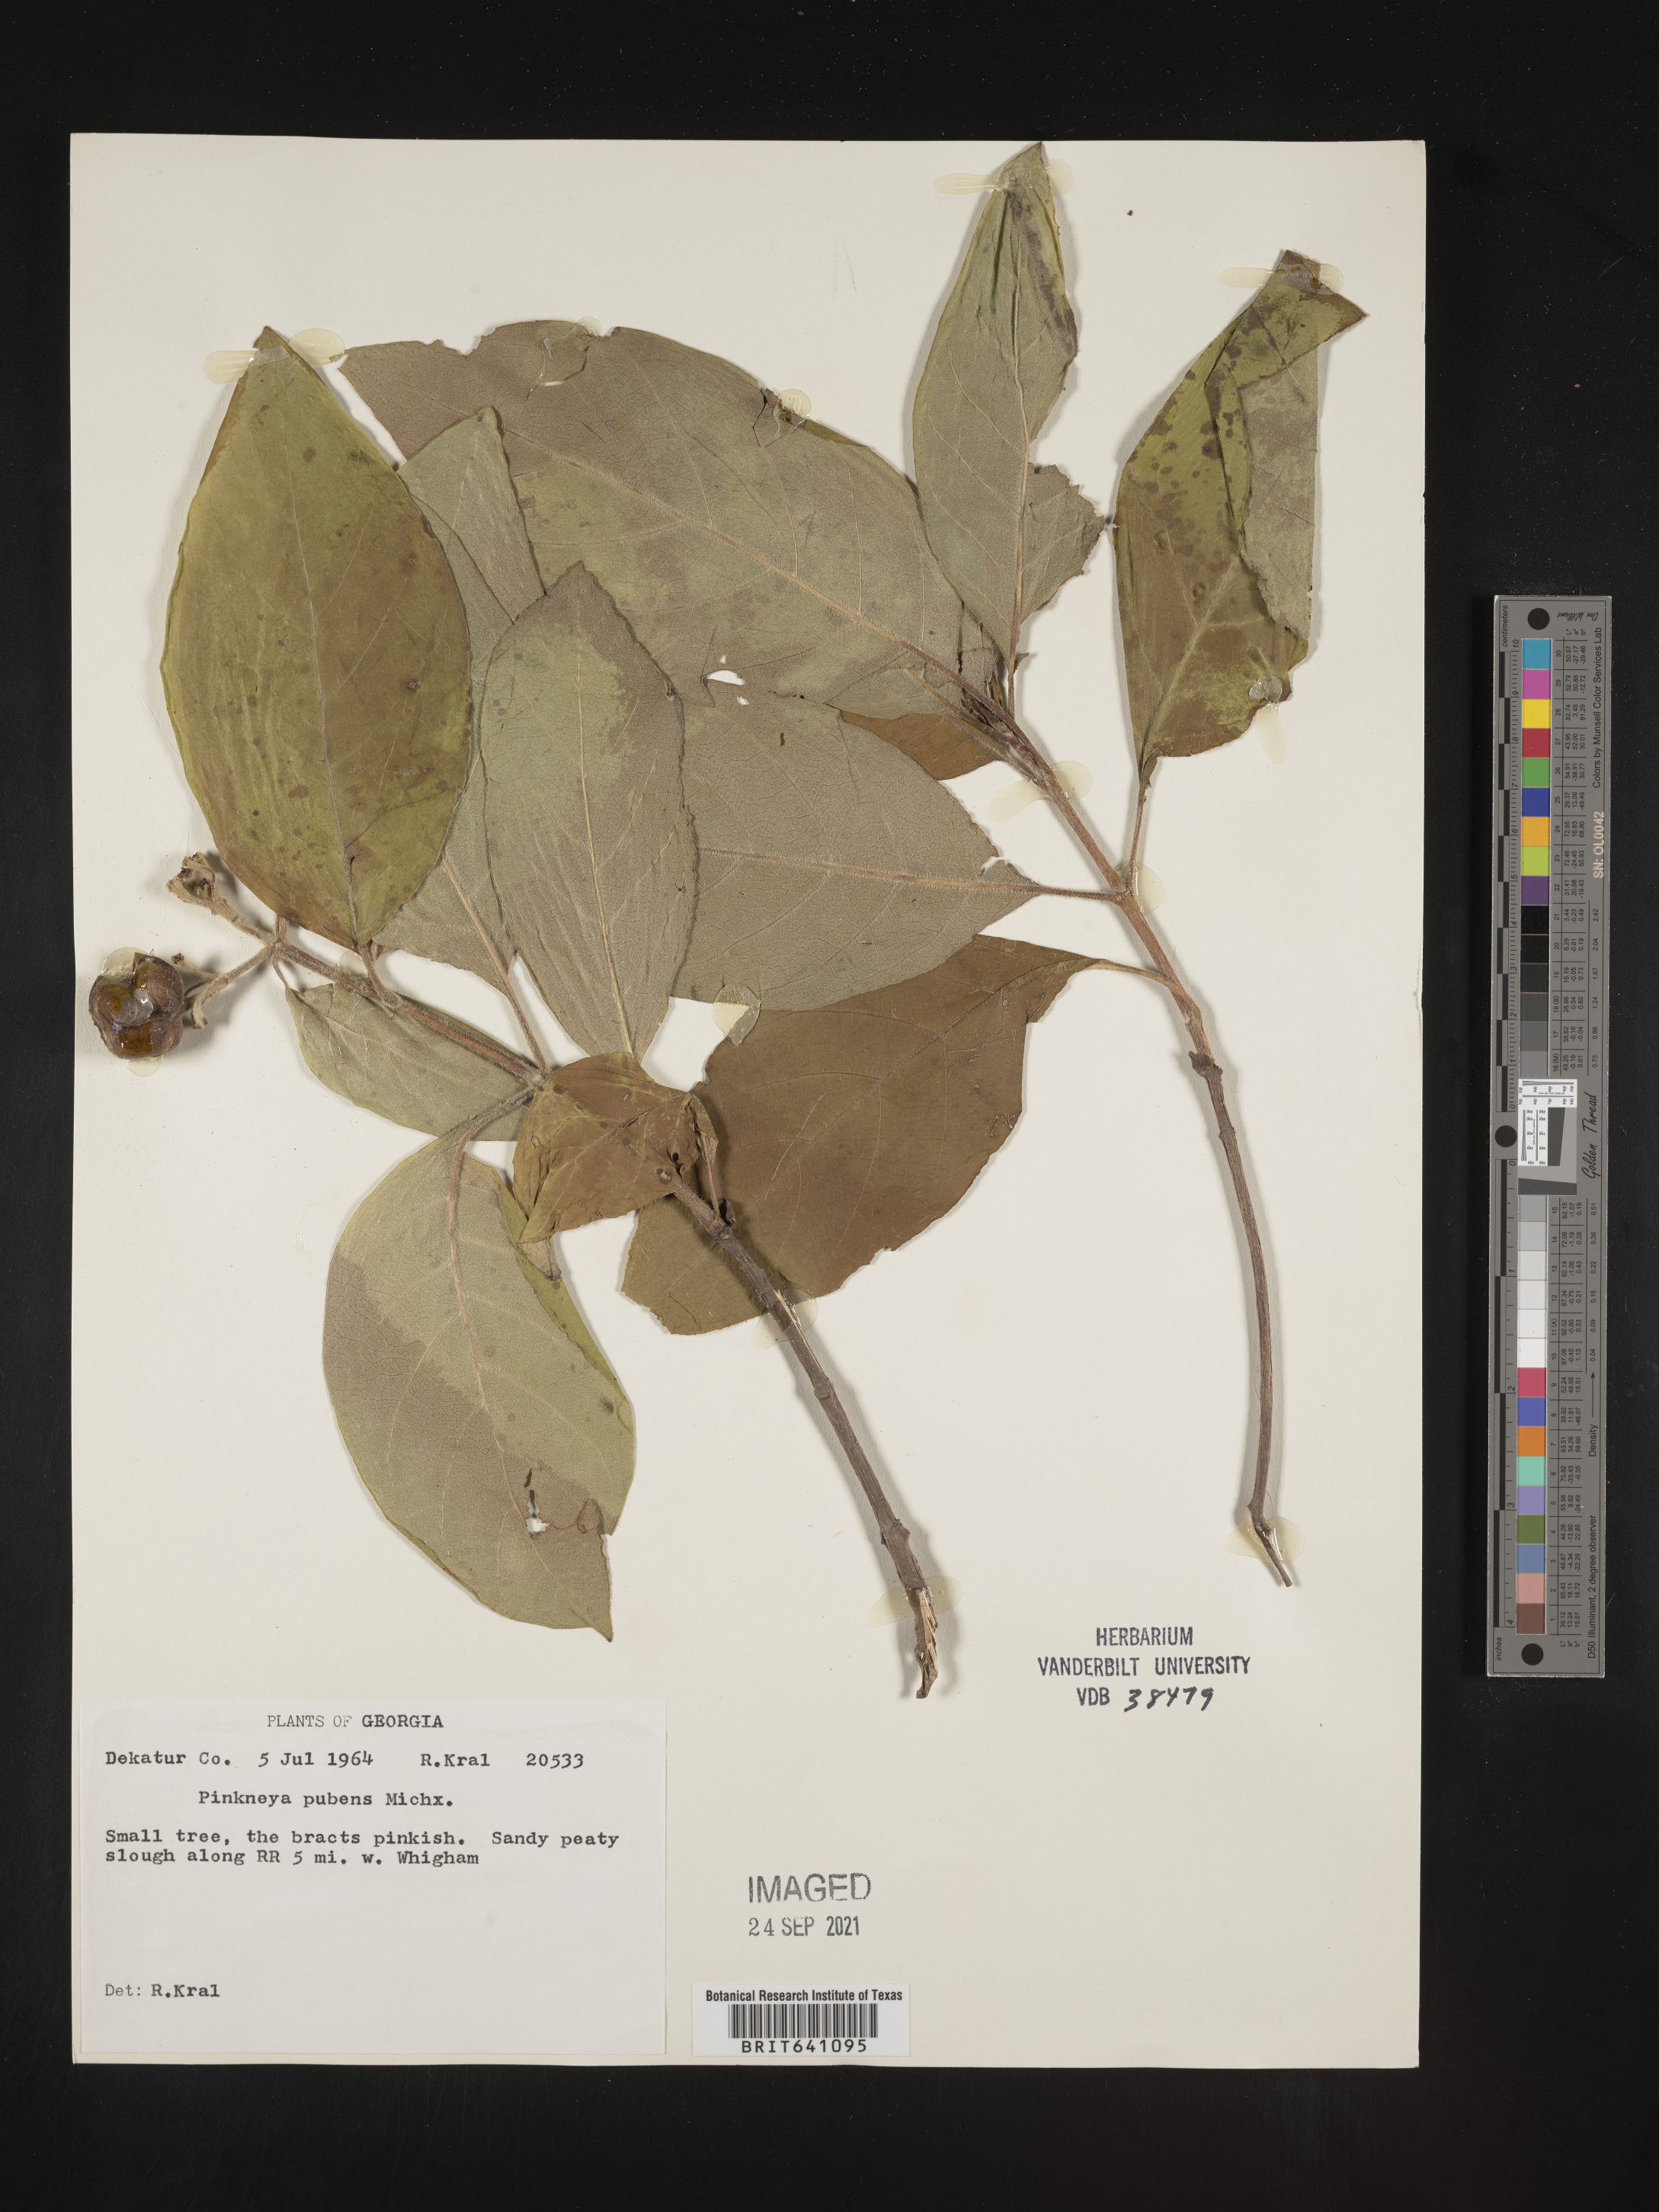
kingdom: Plantae
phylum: Tracheophyta
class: Magnoliopsida
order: Gentianales
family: Rubiaceae
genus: Pinckneya
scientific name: Pinckneya pubens
